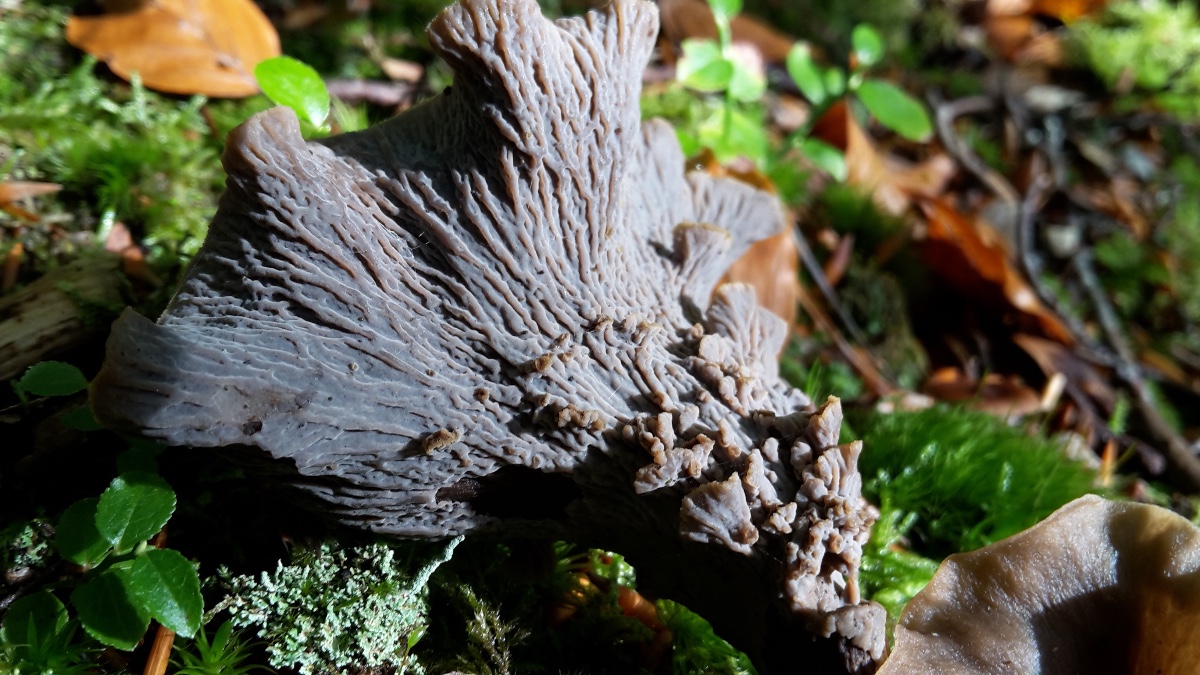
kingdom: Fungi
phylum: Basidiomycota
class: Agaricomycetes
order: Cantharellales
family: Hydnaceae
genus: Craterellus
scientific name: Craterellus undulatus
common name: liden kantarel
